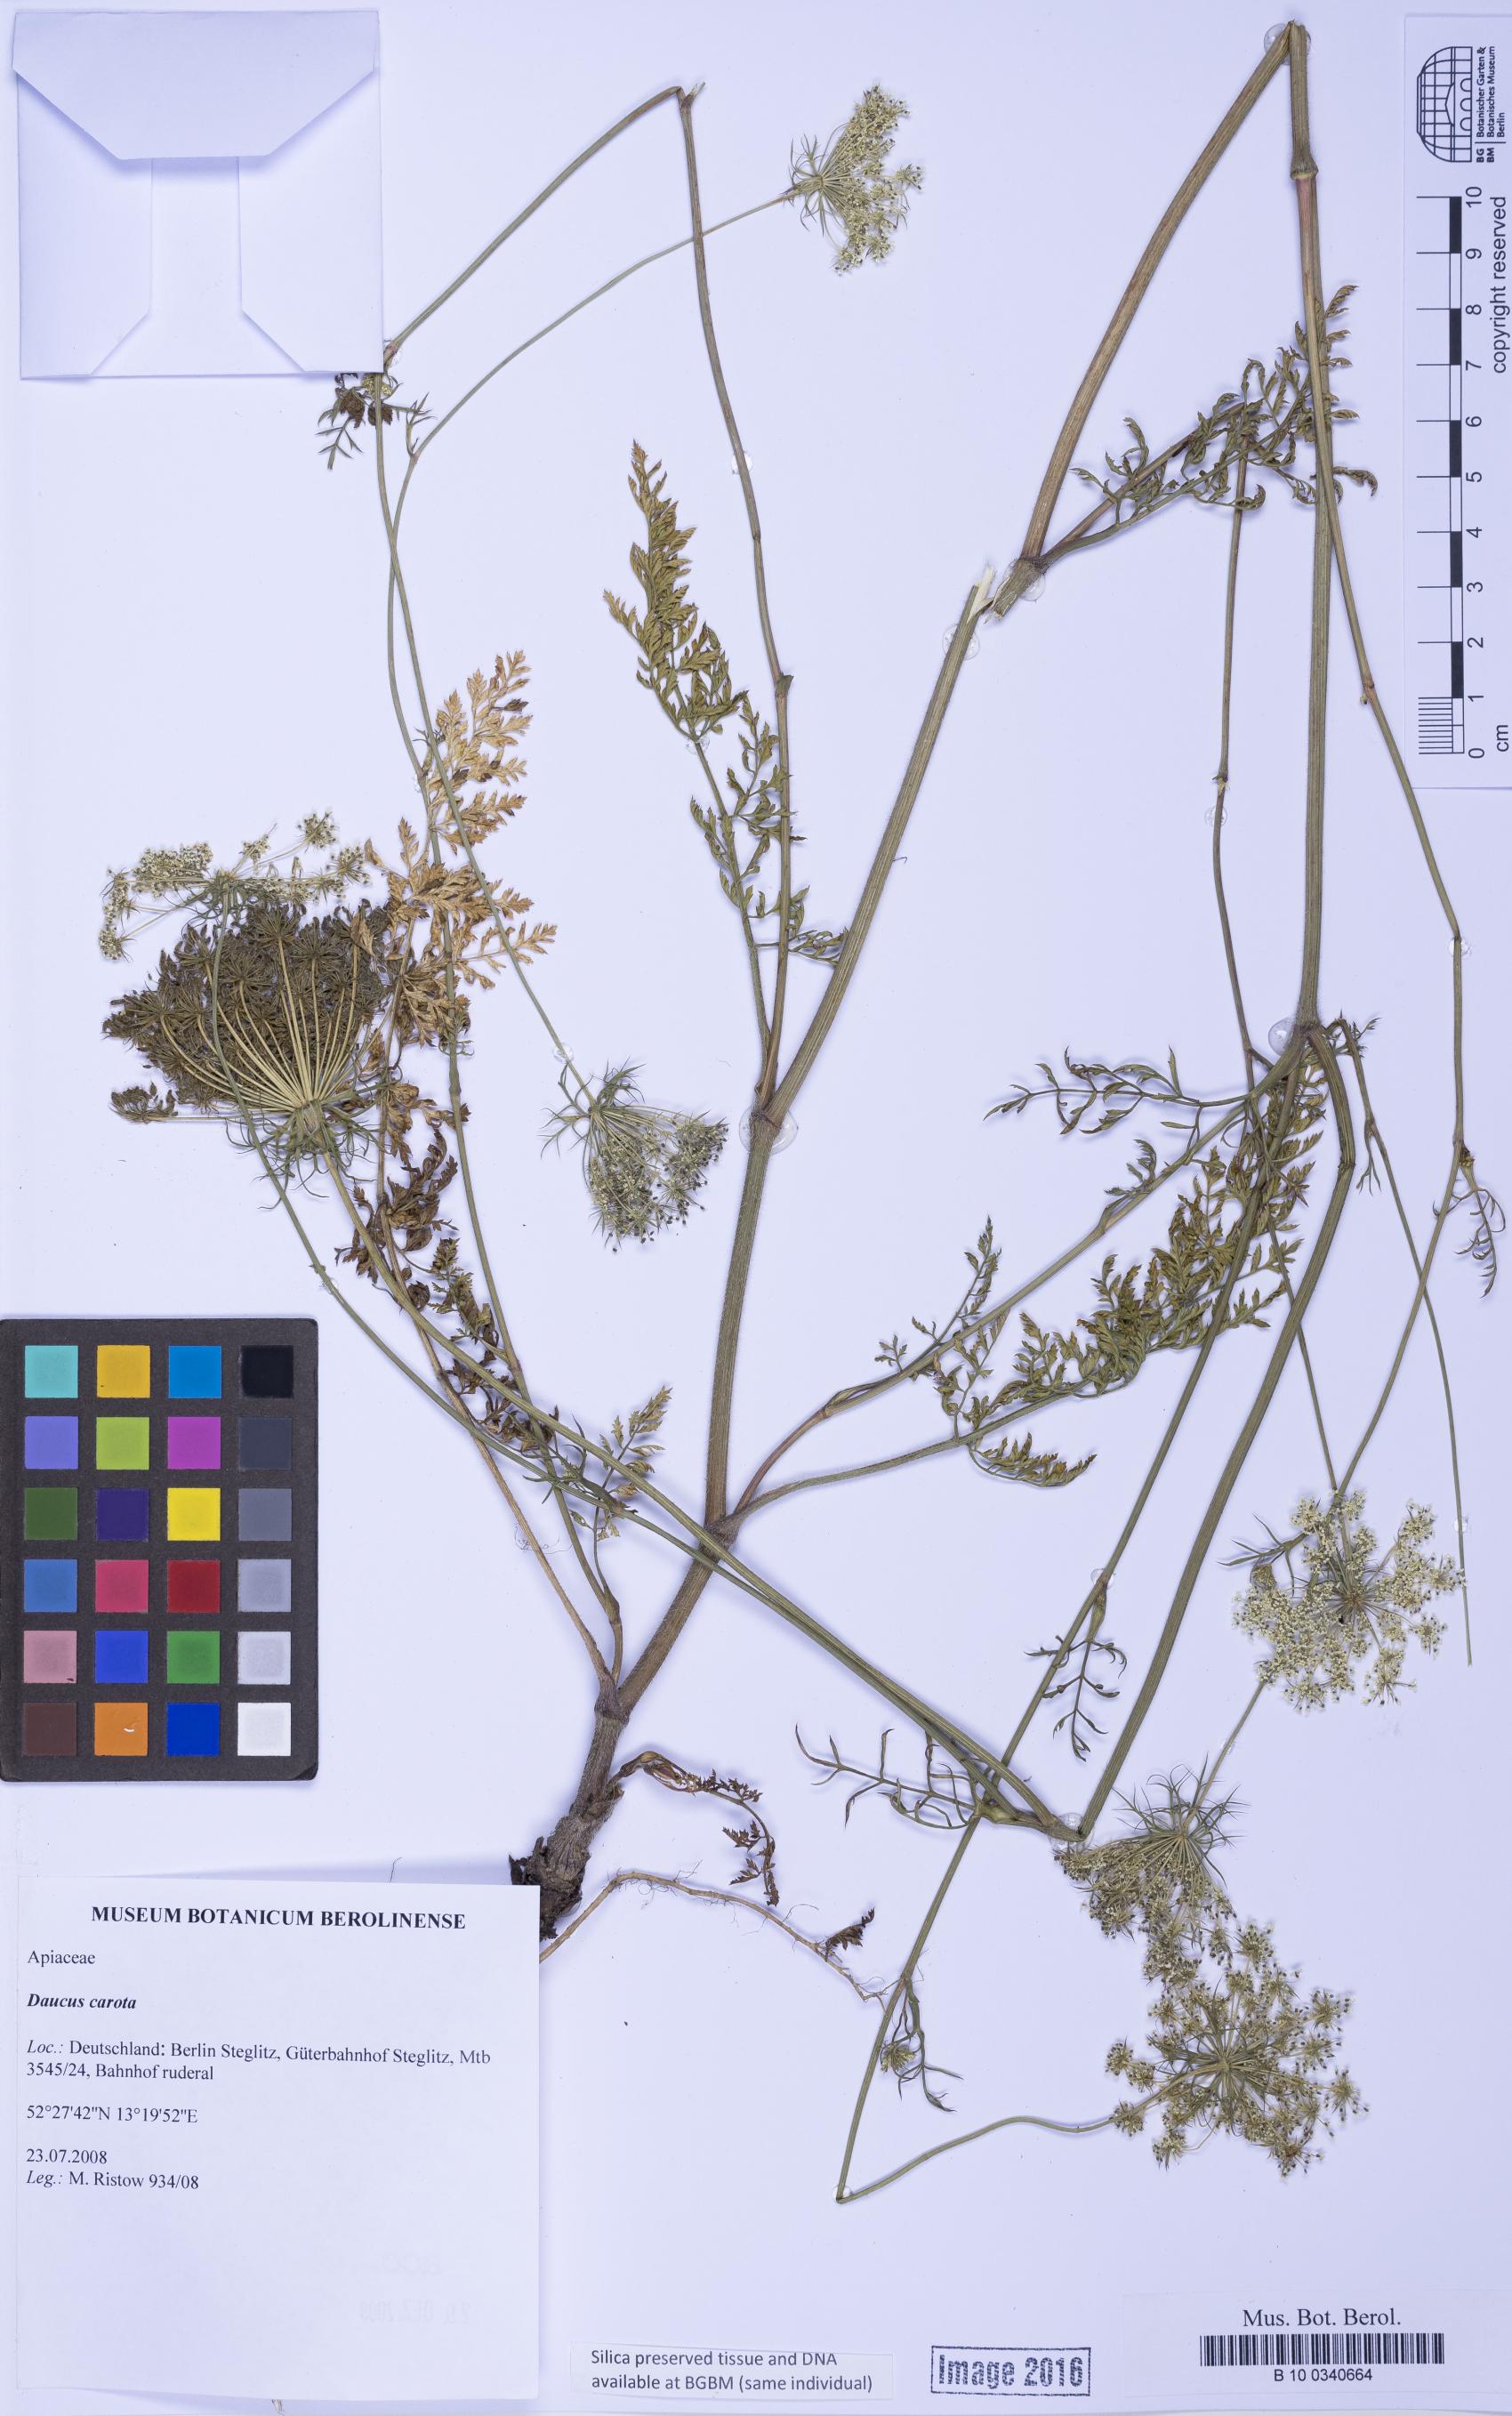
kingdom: Plantae
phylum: Tracheophyta
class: Magnoliopsida
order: Apiales
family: Apiaceae
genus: Daucus
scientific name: Daucus carota
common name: Wild carrot
